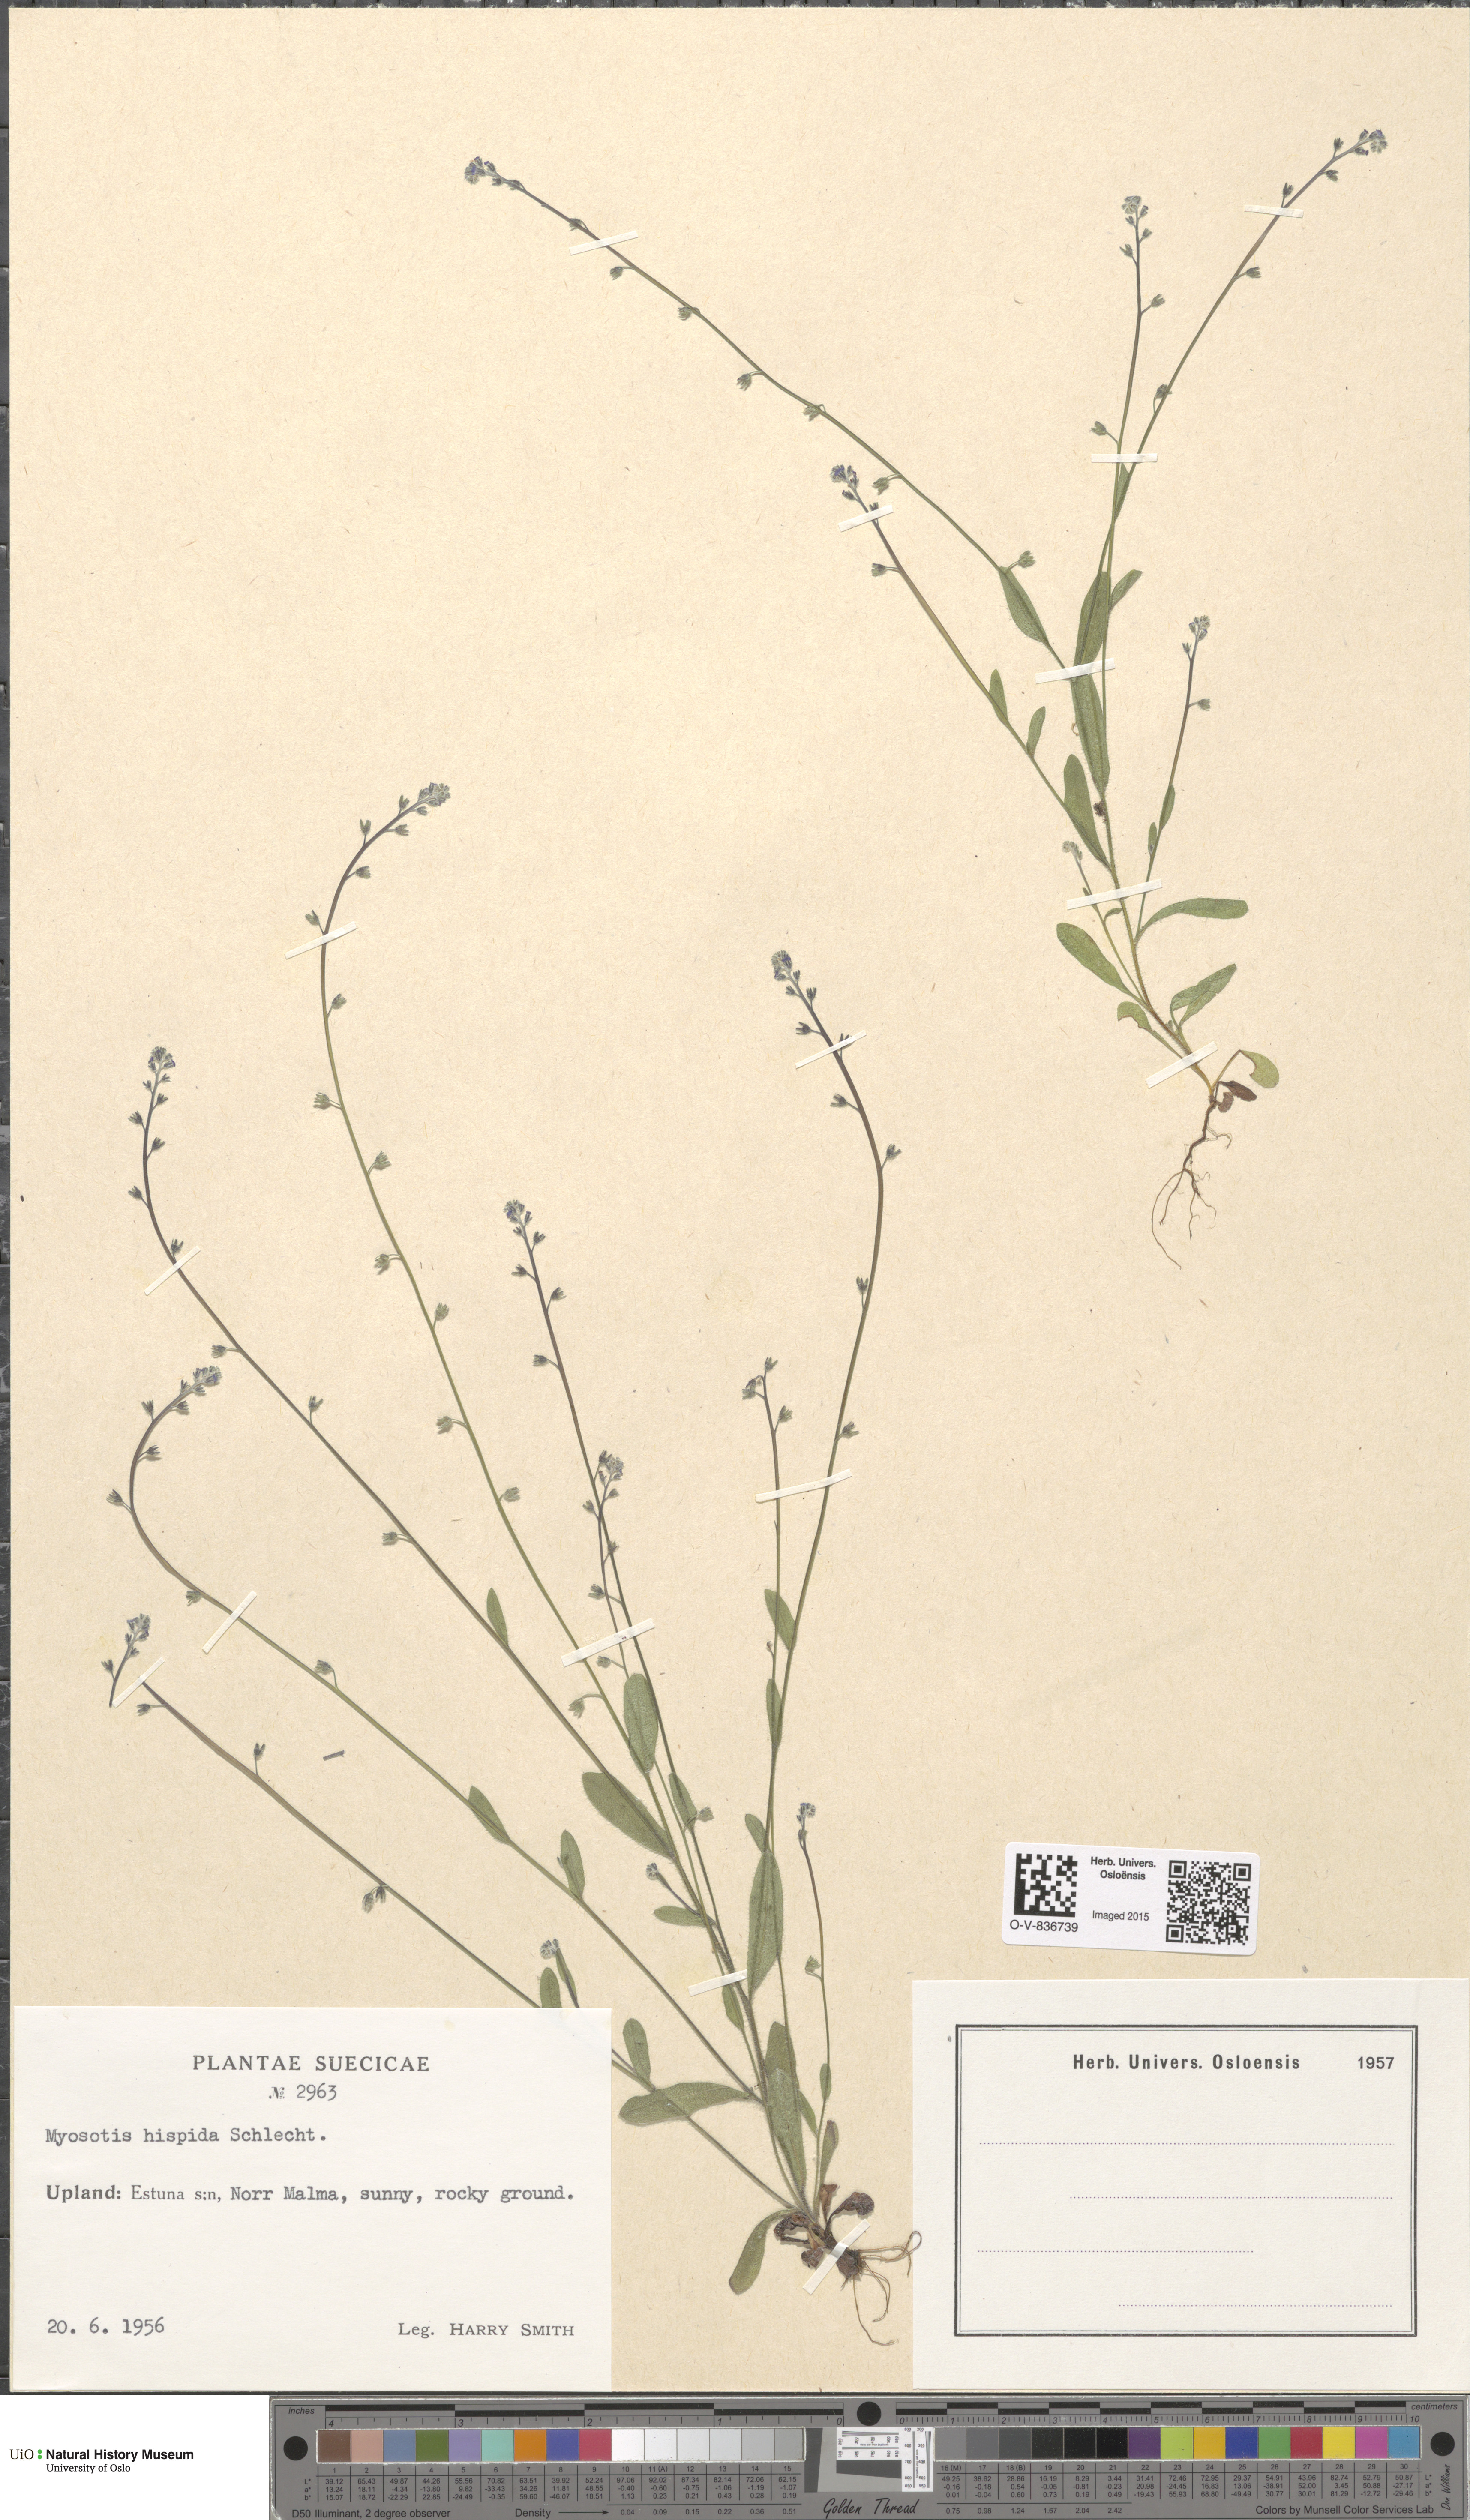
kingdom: Plantae
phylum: Tracheophyta
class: Magnoliopsida
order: Boraginales
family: Boraginaceae
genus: Myosotis
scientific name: Myosotis ramosissima
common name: Early forget-me-not
